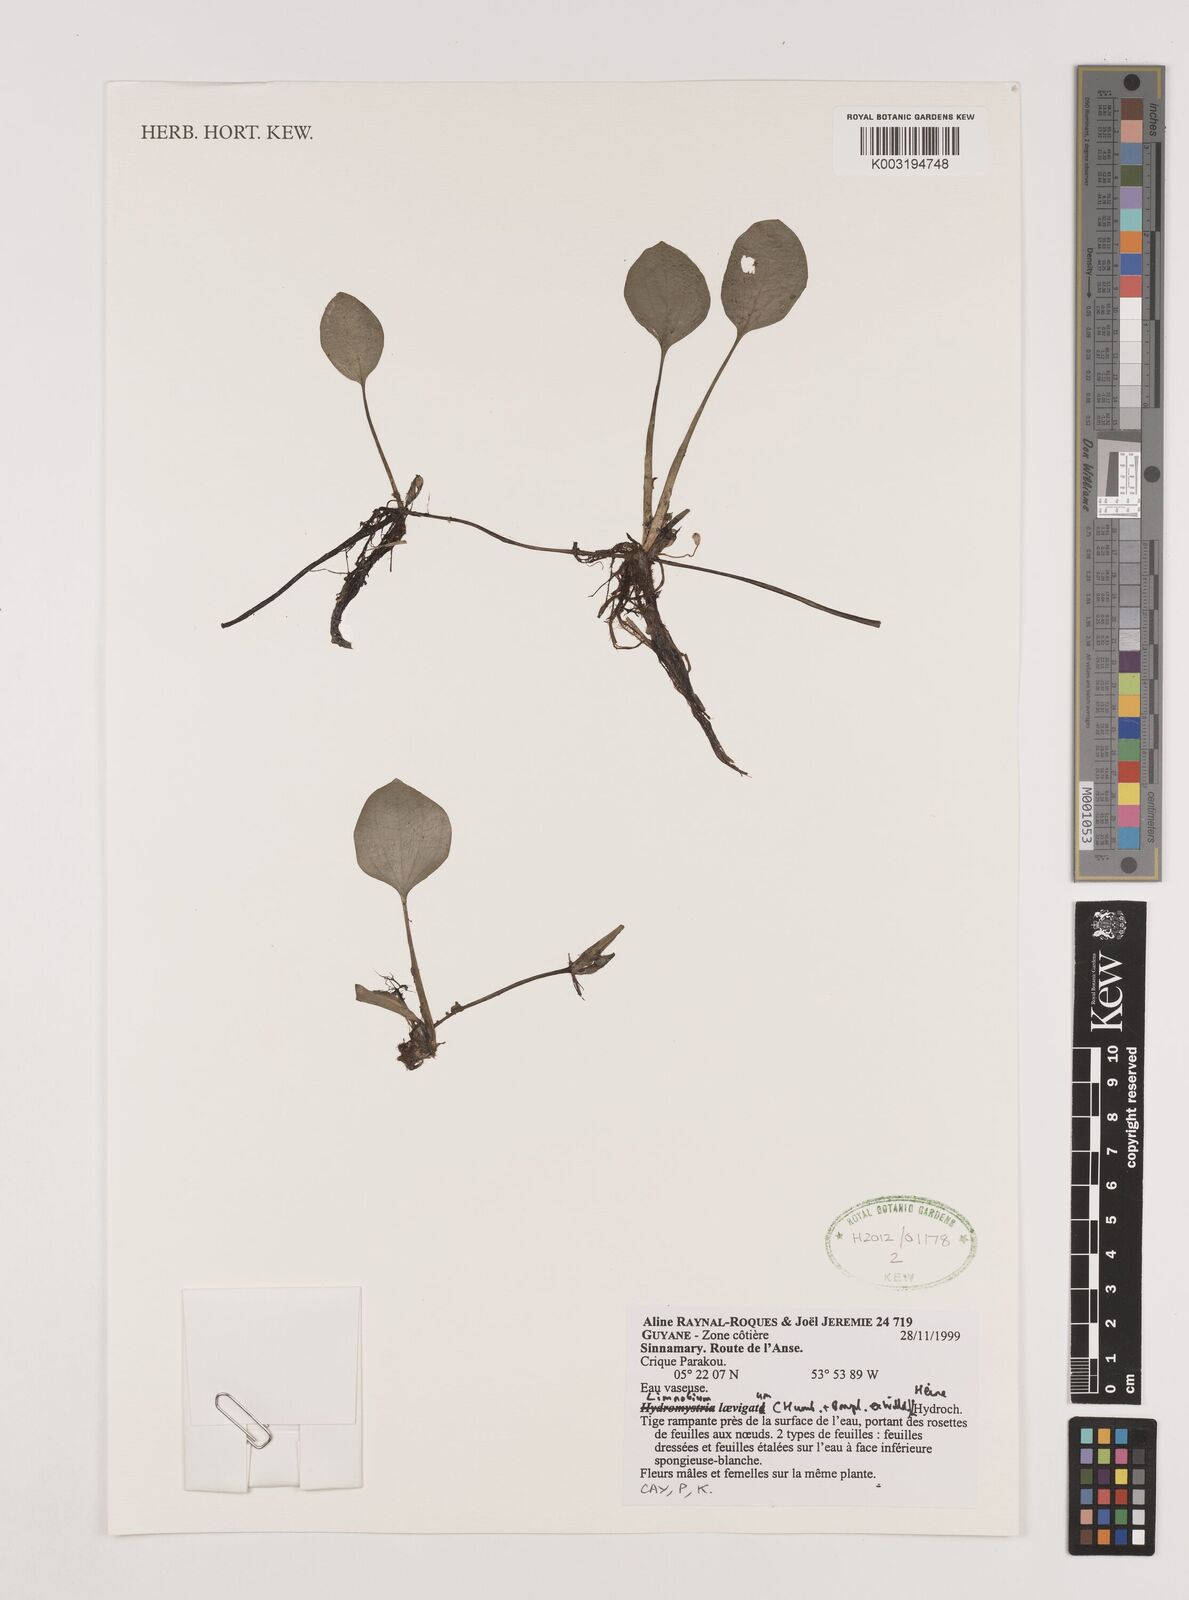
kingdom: Plantae
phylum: Tracheophyta
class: Liliopsida
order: Alismatales
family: Hydrocharitaceae
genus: Hydrocharis
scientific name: Hydrocharis laevigata
